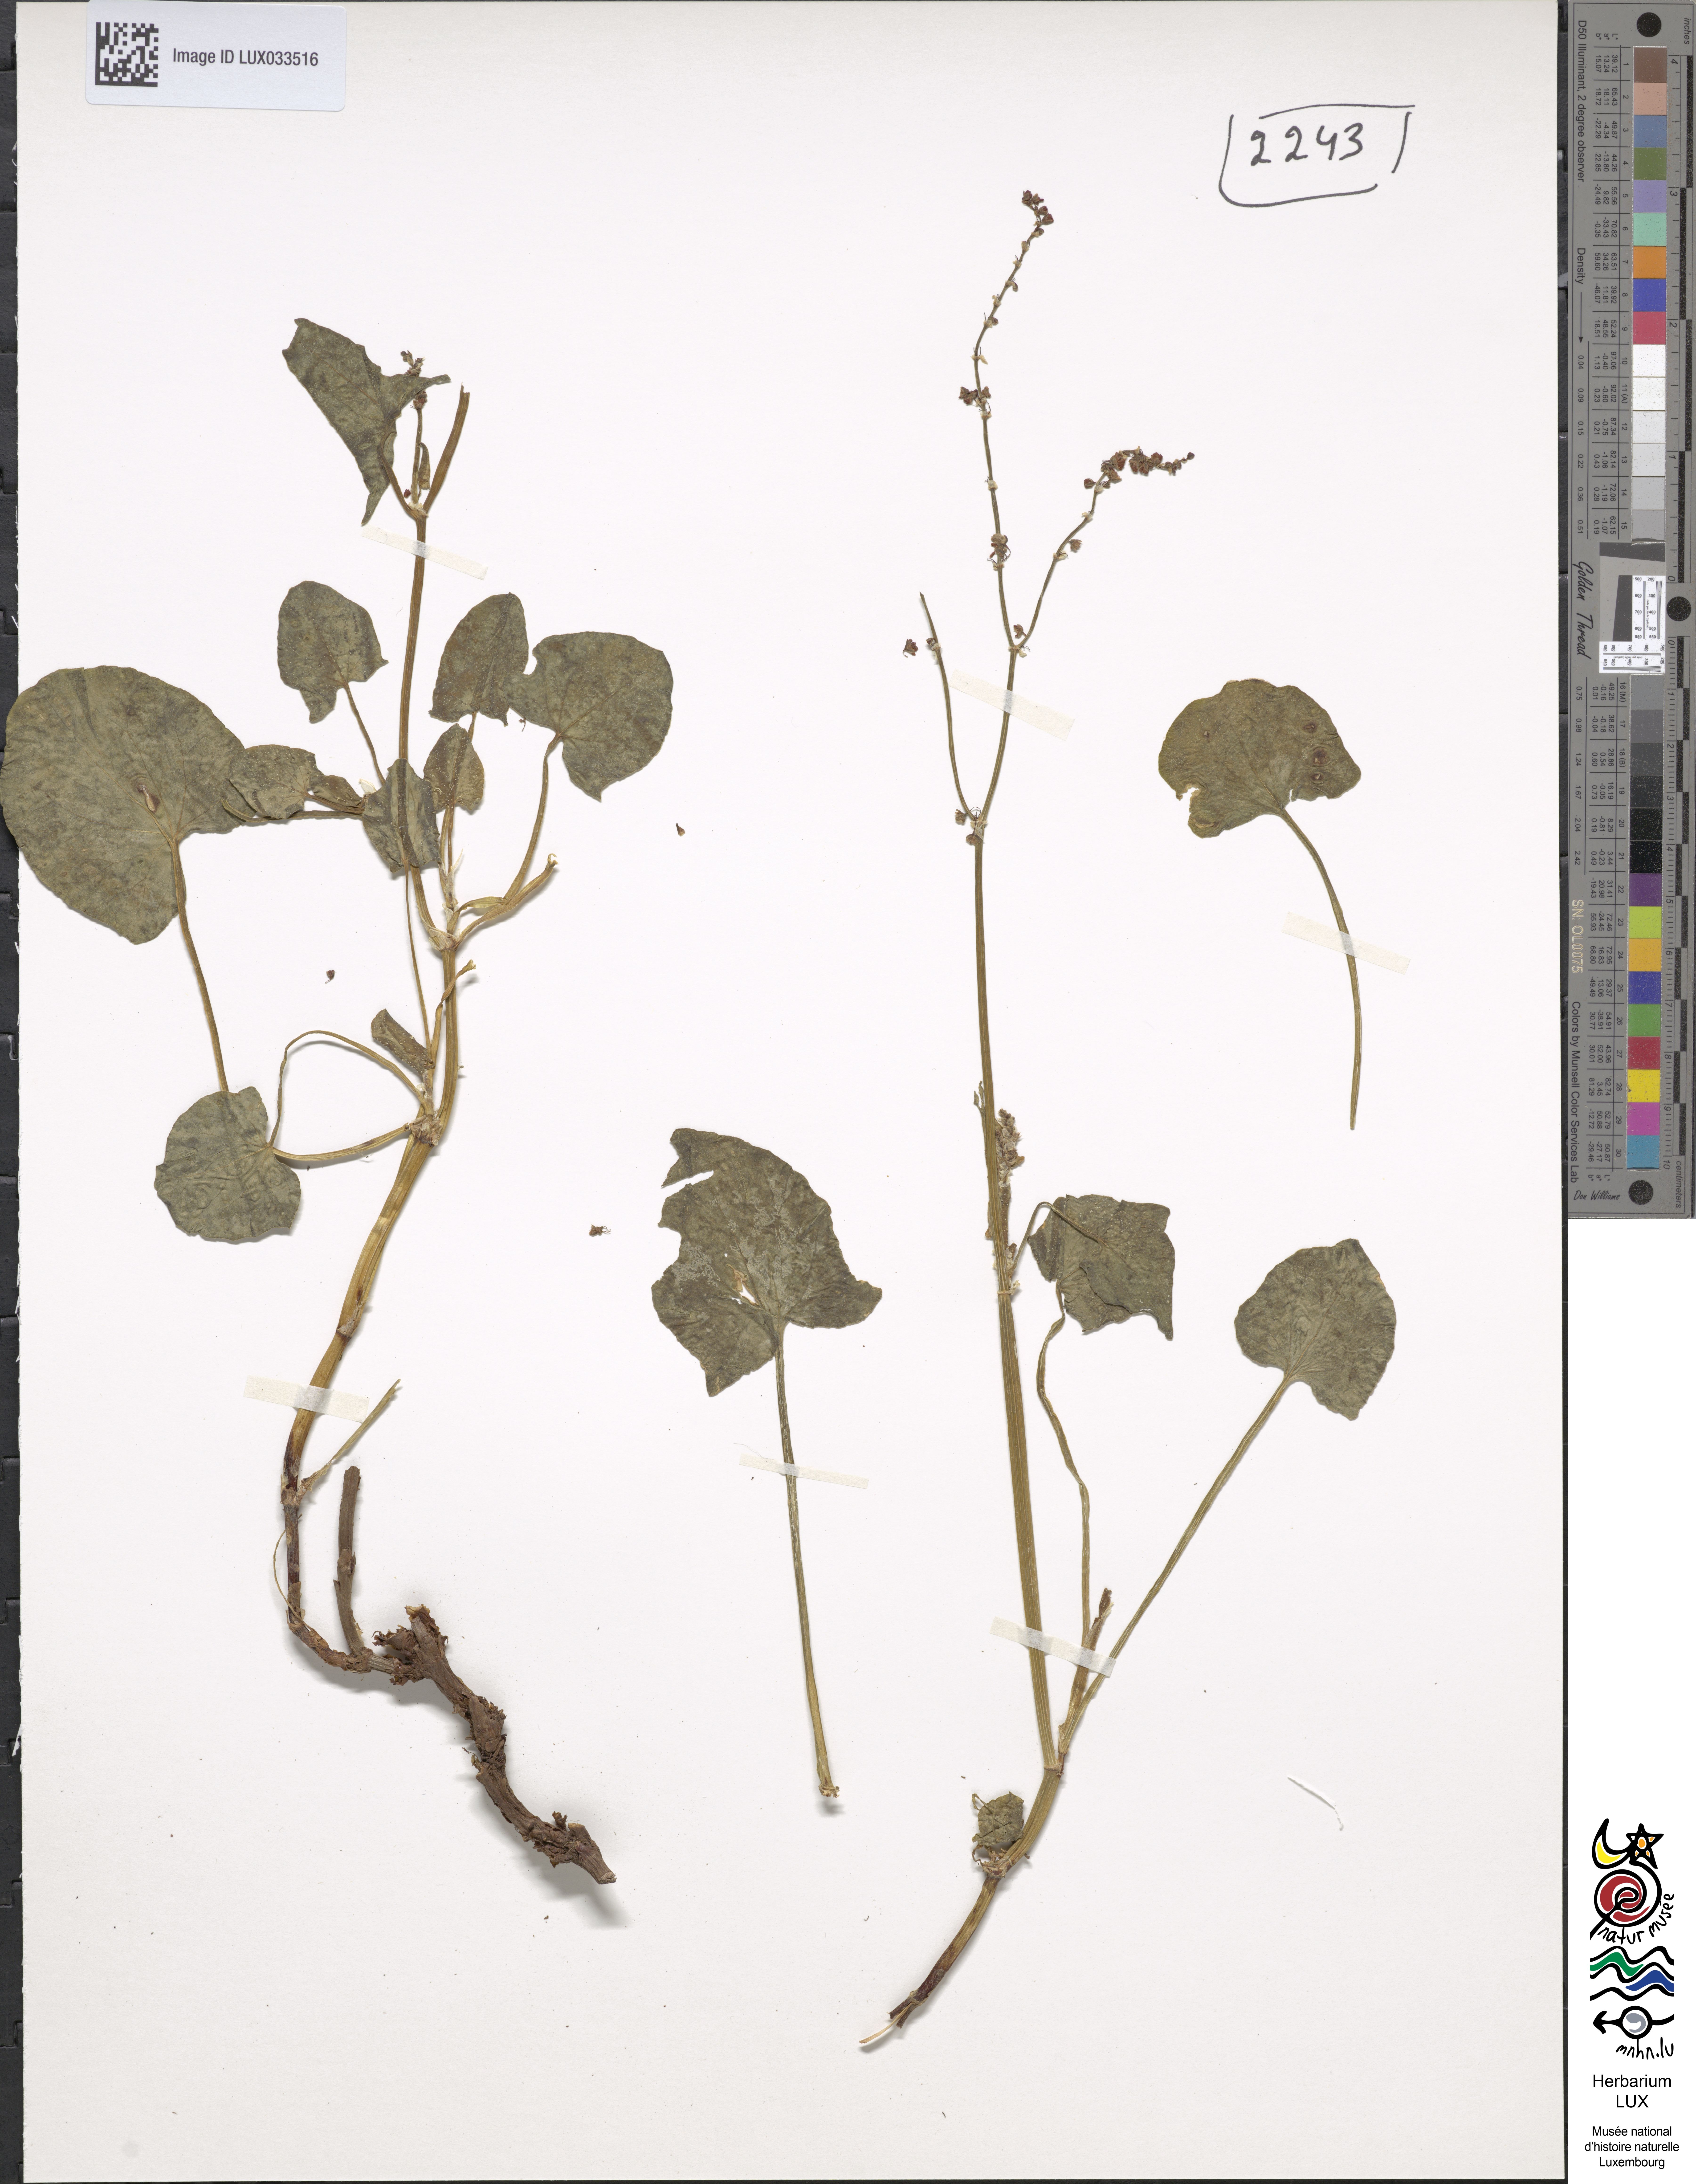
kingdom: Plantae
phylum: Tracheophyta
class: Magnoliopsida
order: Caryophyllales
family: Polygonaceae
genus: Rumex
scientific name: Rumex scutatus
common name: French sorrel
